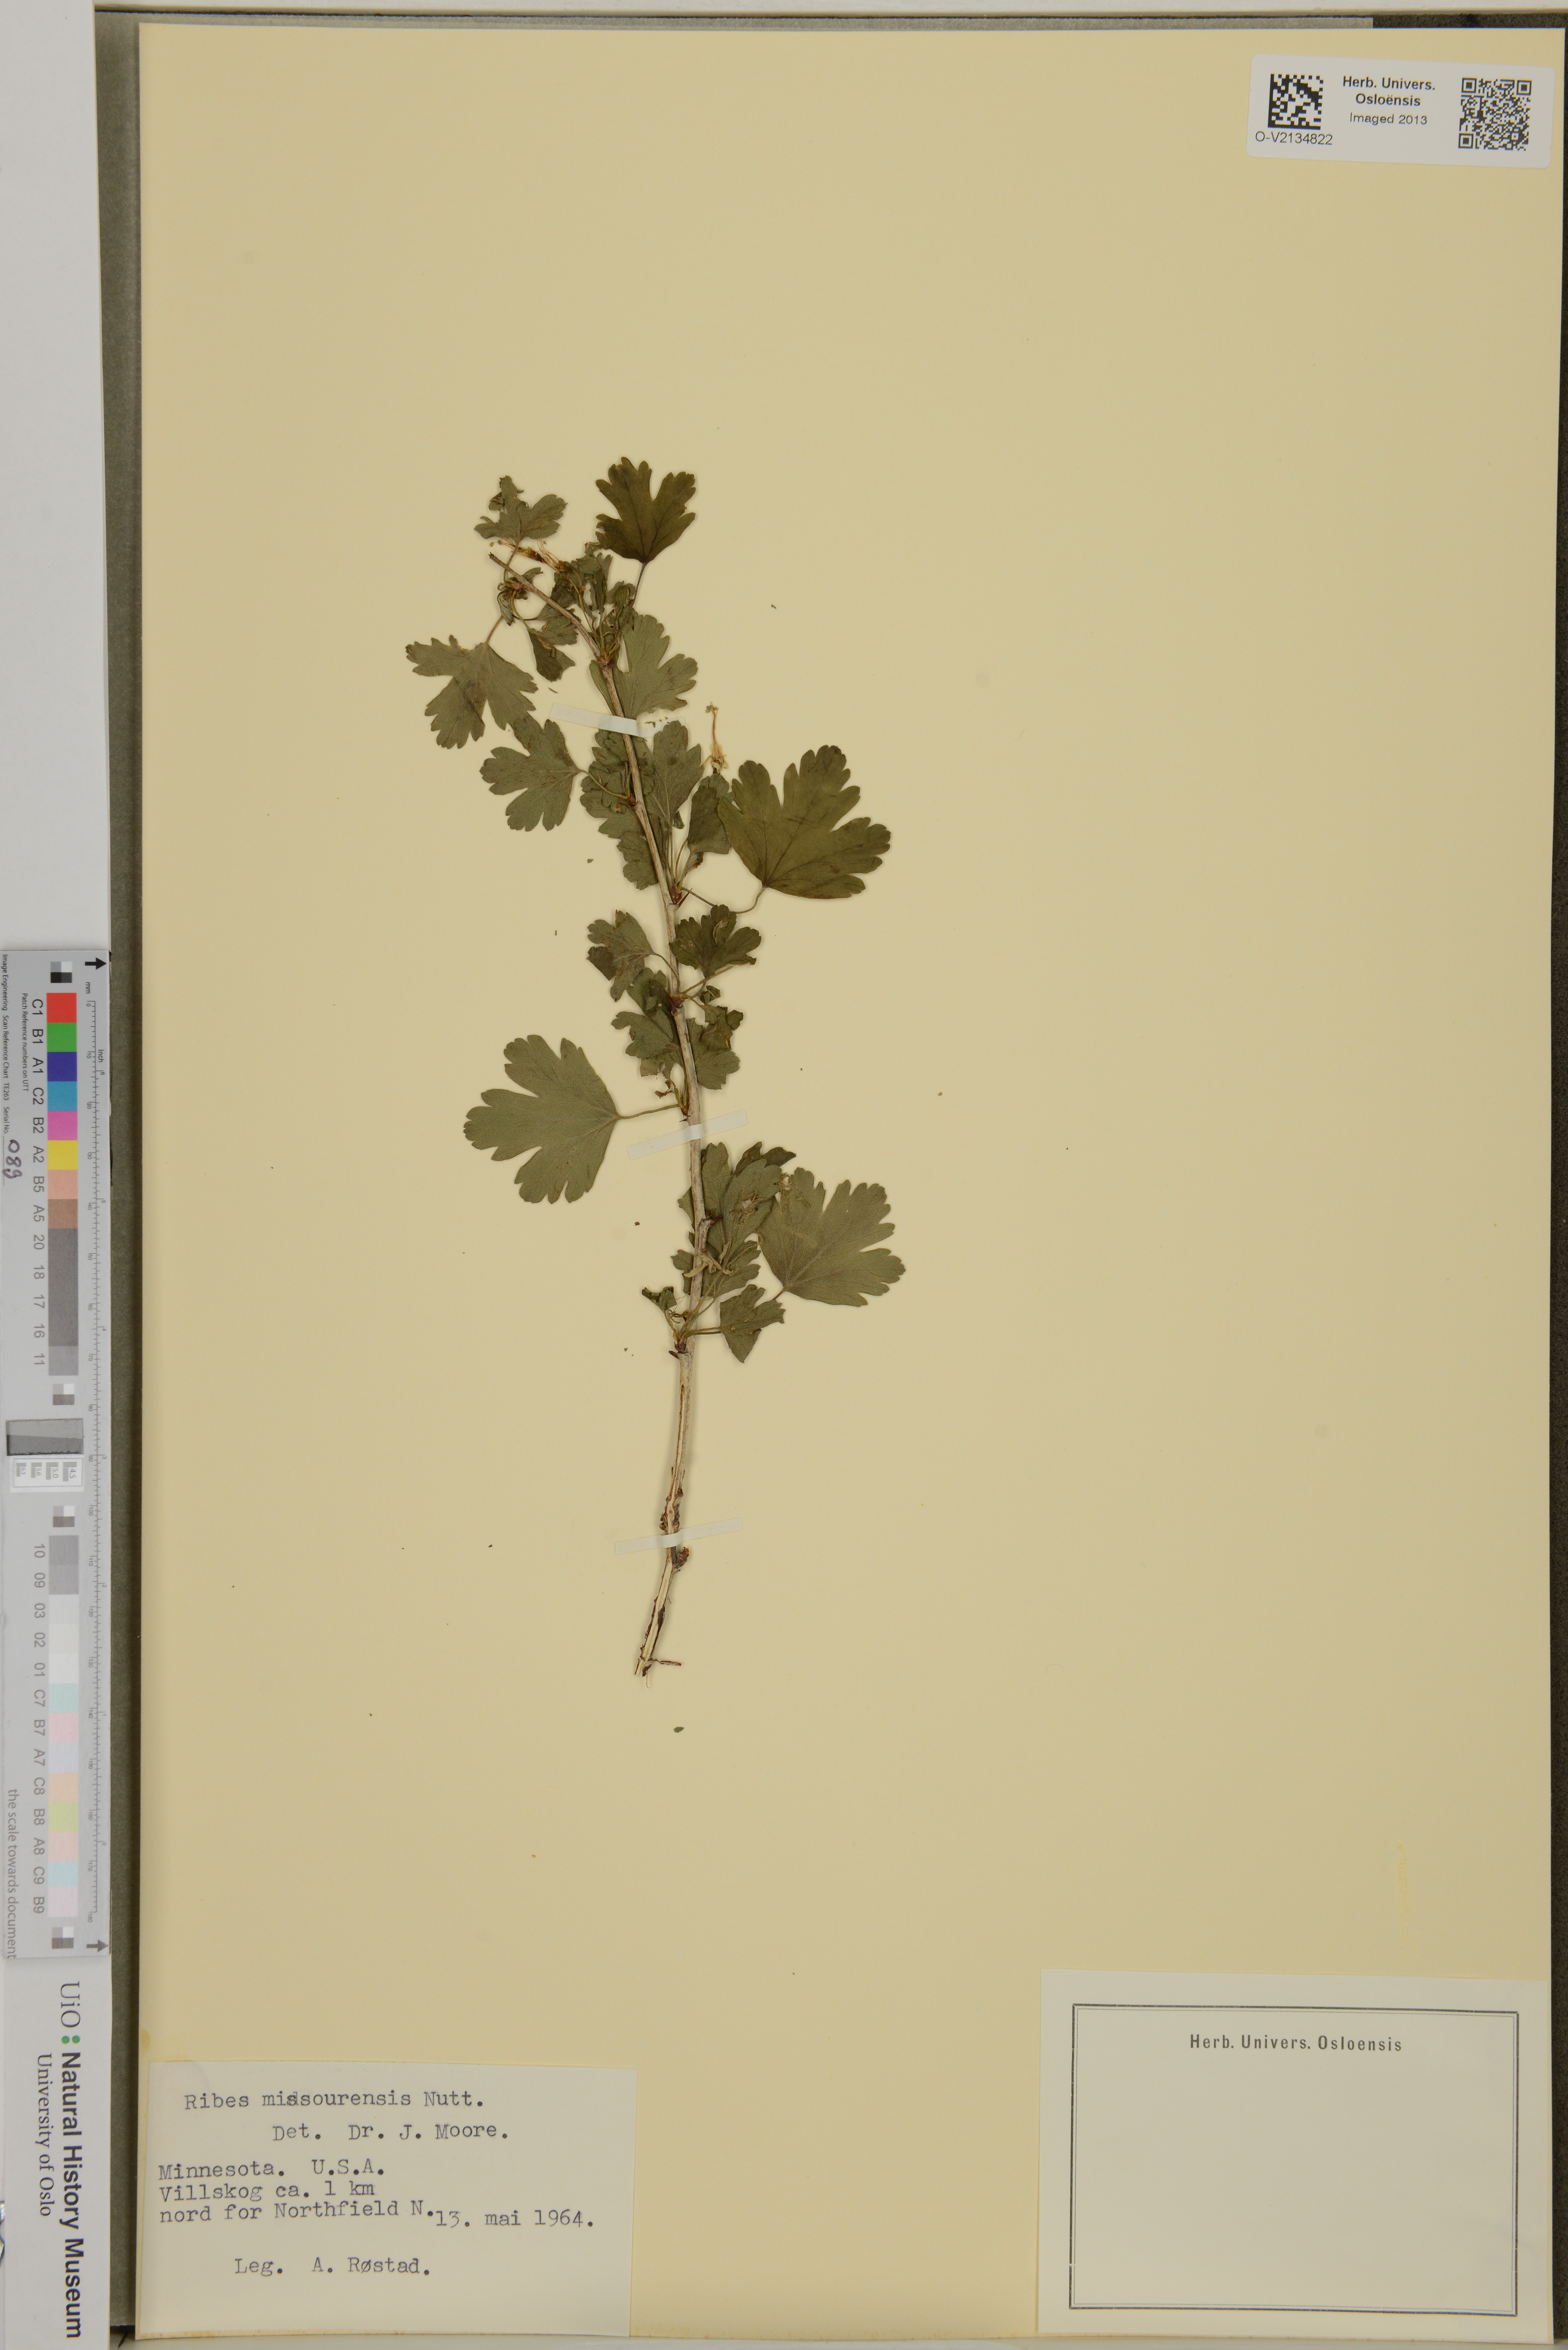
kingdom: Plantae
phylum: Tracheophyta
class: Magnoliopsida
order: Saxifragales
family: Grossulariaceae
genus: Ribes
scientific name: Ribes missouriense
